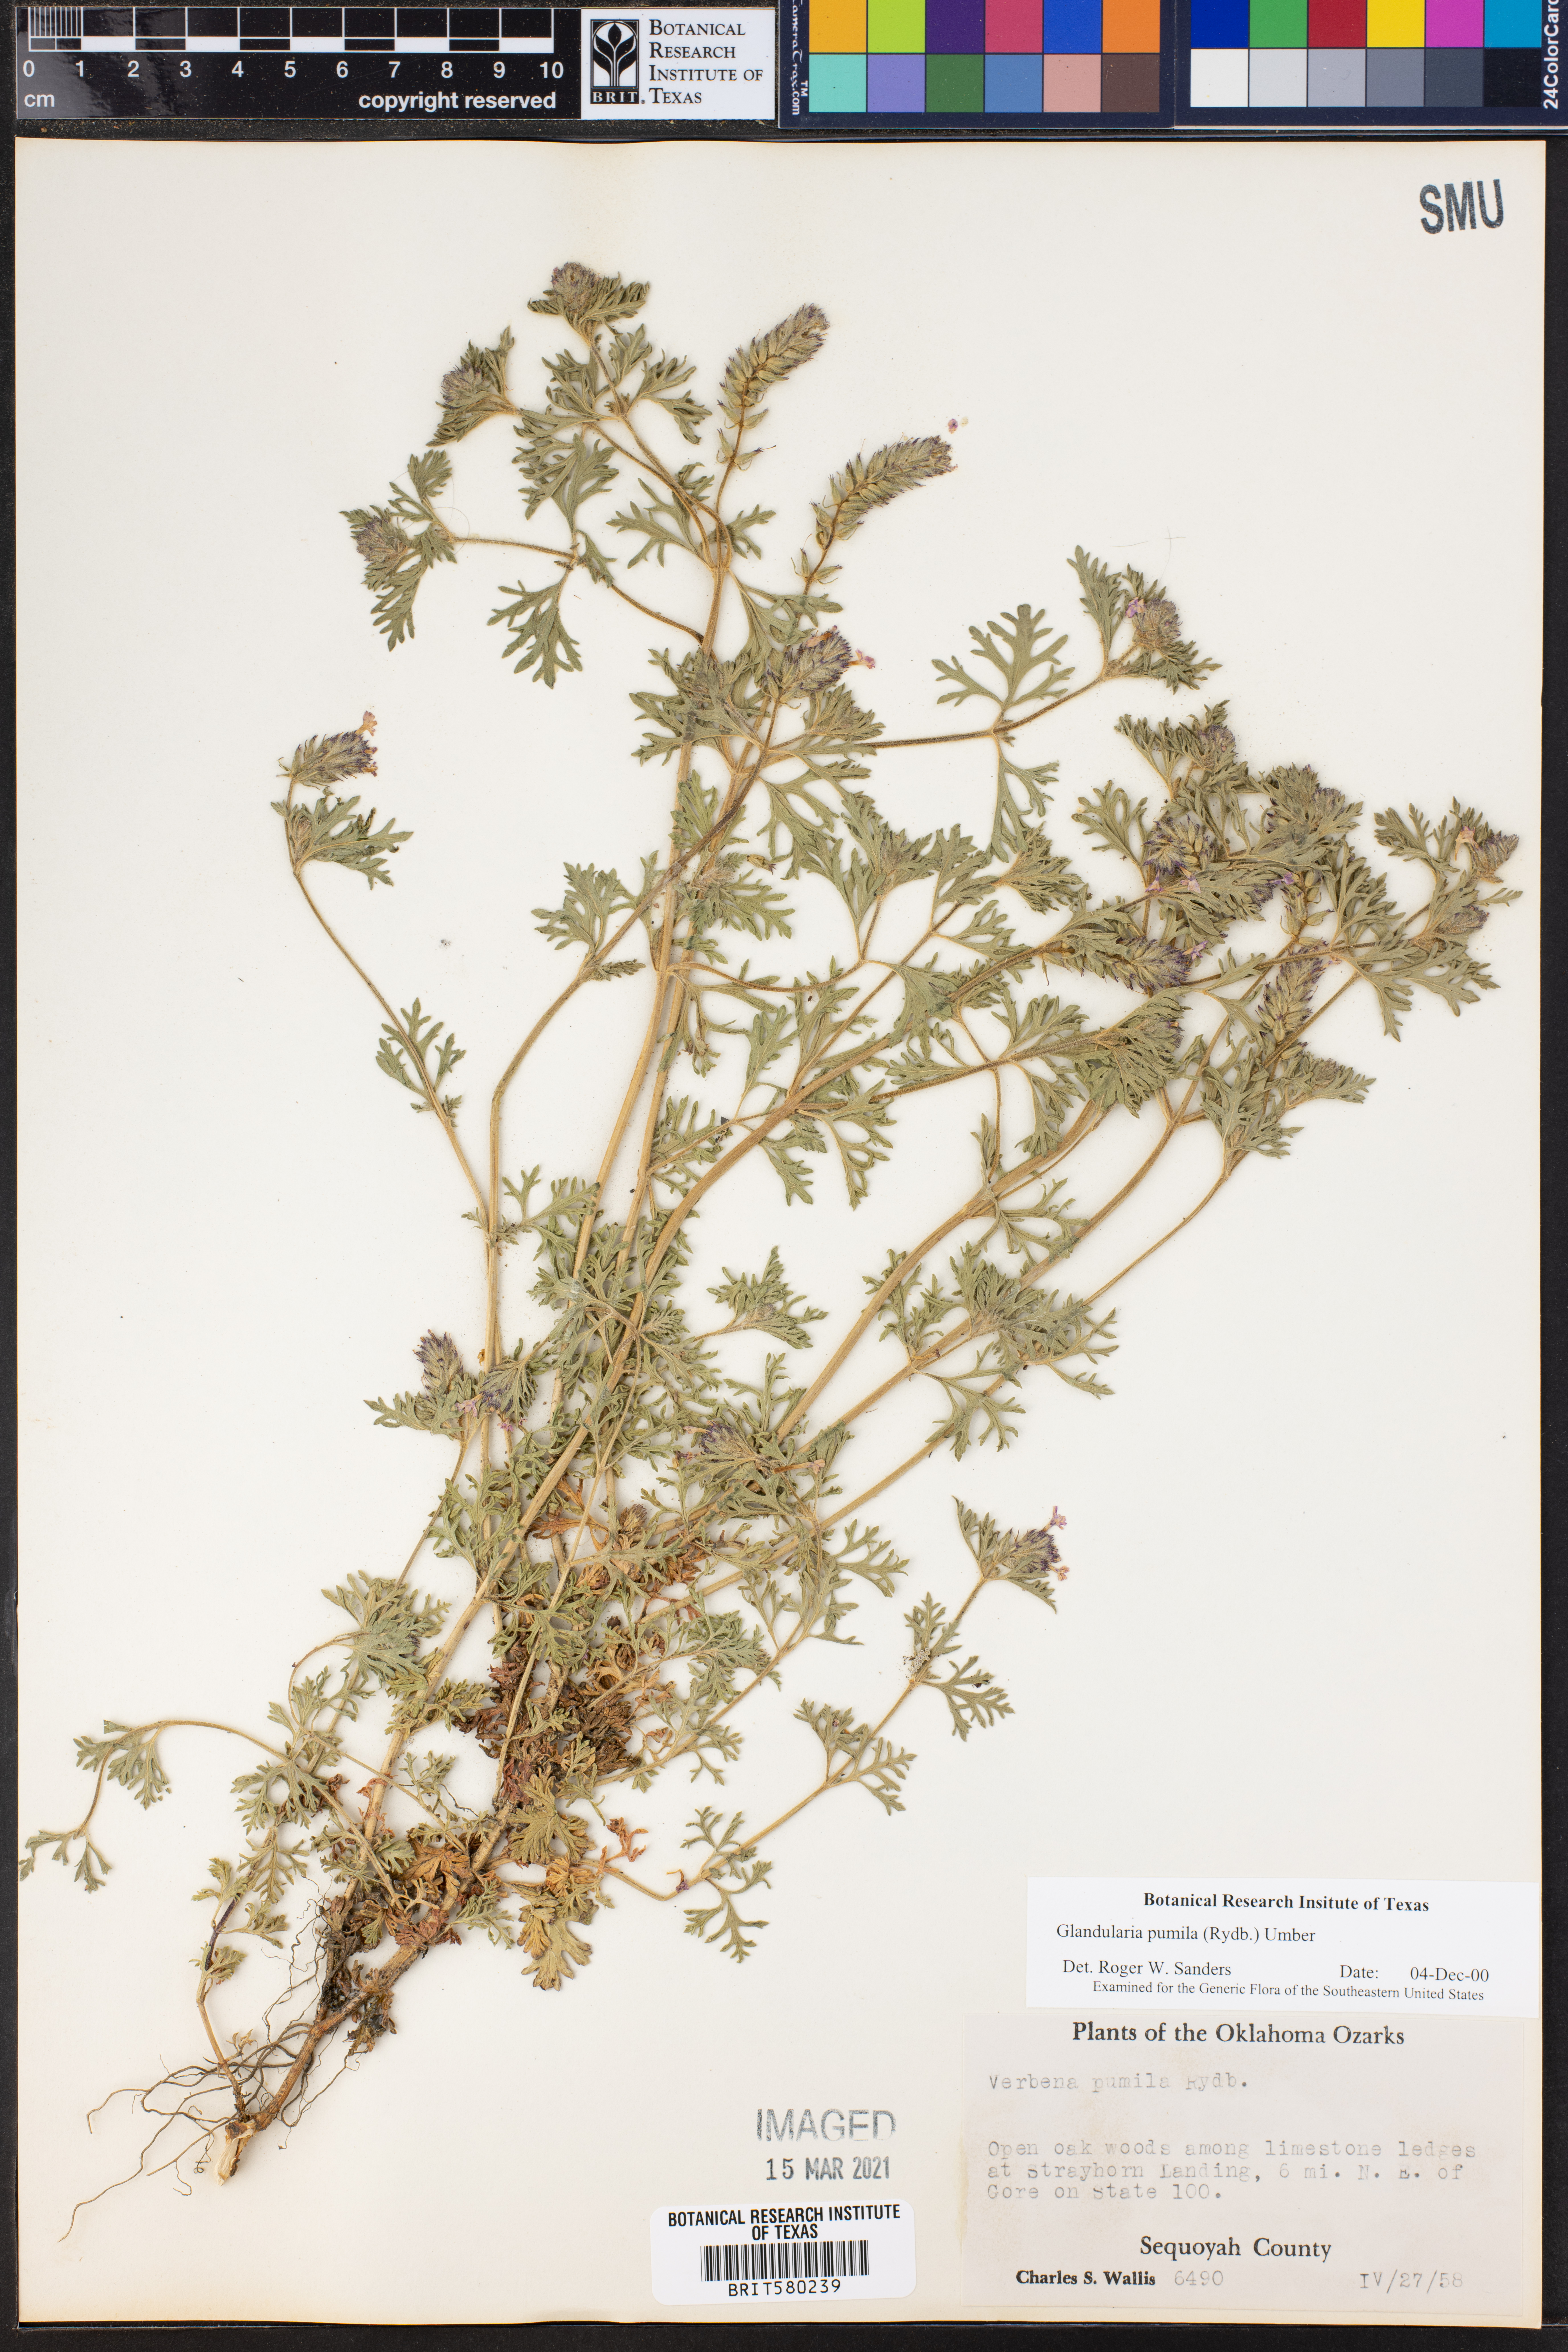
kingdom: Plantae
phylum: Tracheophyta
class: Magnoliopsida
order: Lamiales
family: Verbenaceae
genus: Verbena
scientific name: Verbena pumila
